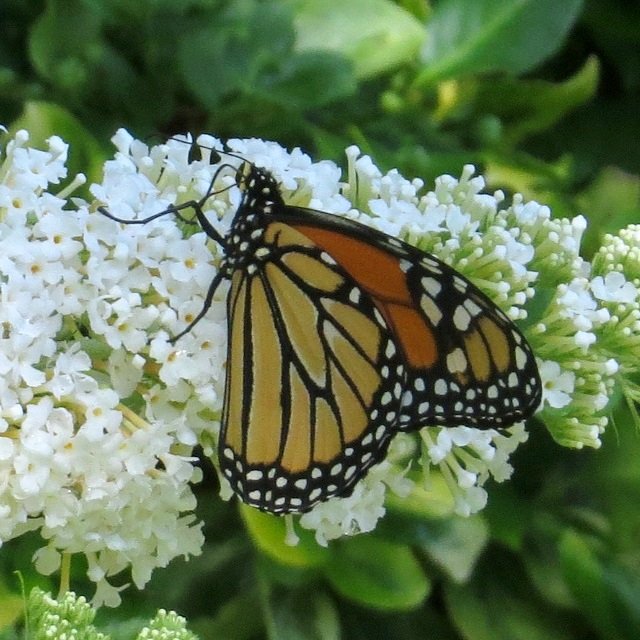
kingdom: Animalia
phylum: Arthropoda
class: Insecta
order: Lepidoptera
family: Nymphalidae
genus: Danaus
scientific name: Danaus plexippus
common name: Monarch
